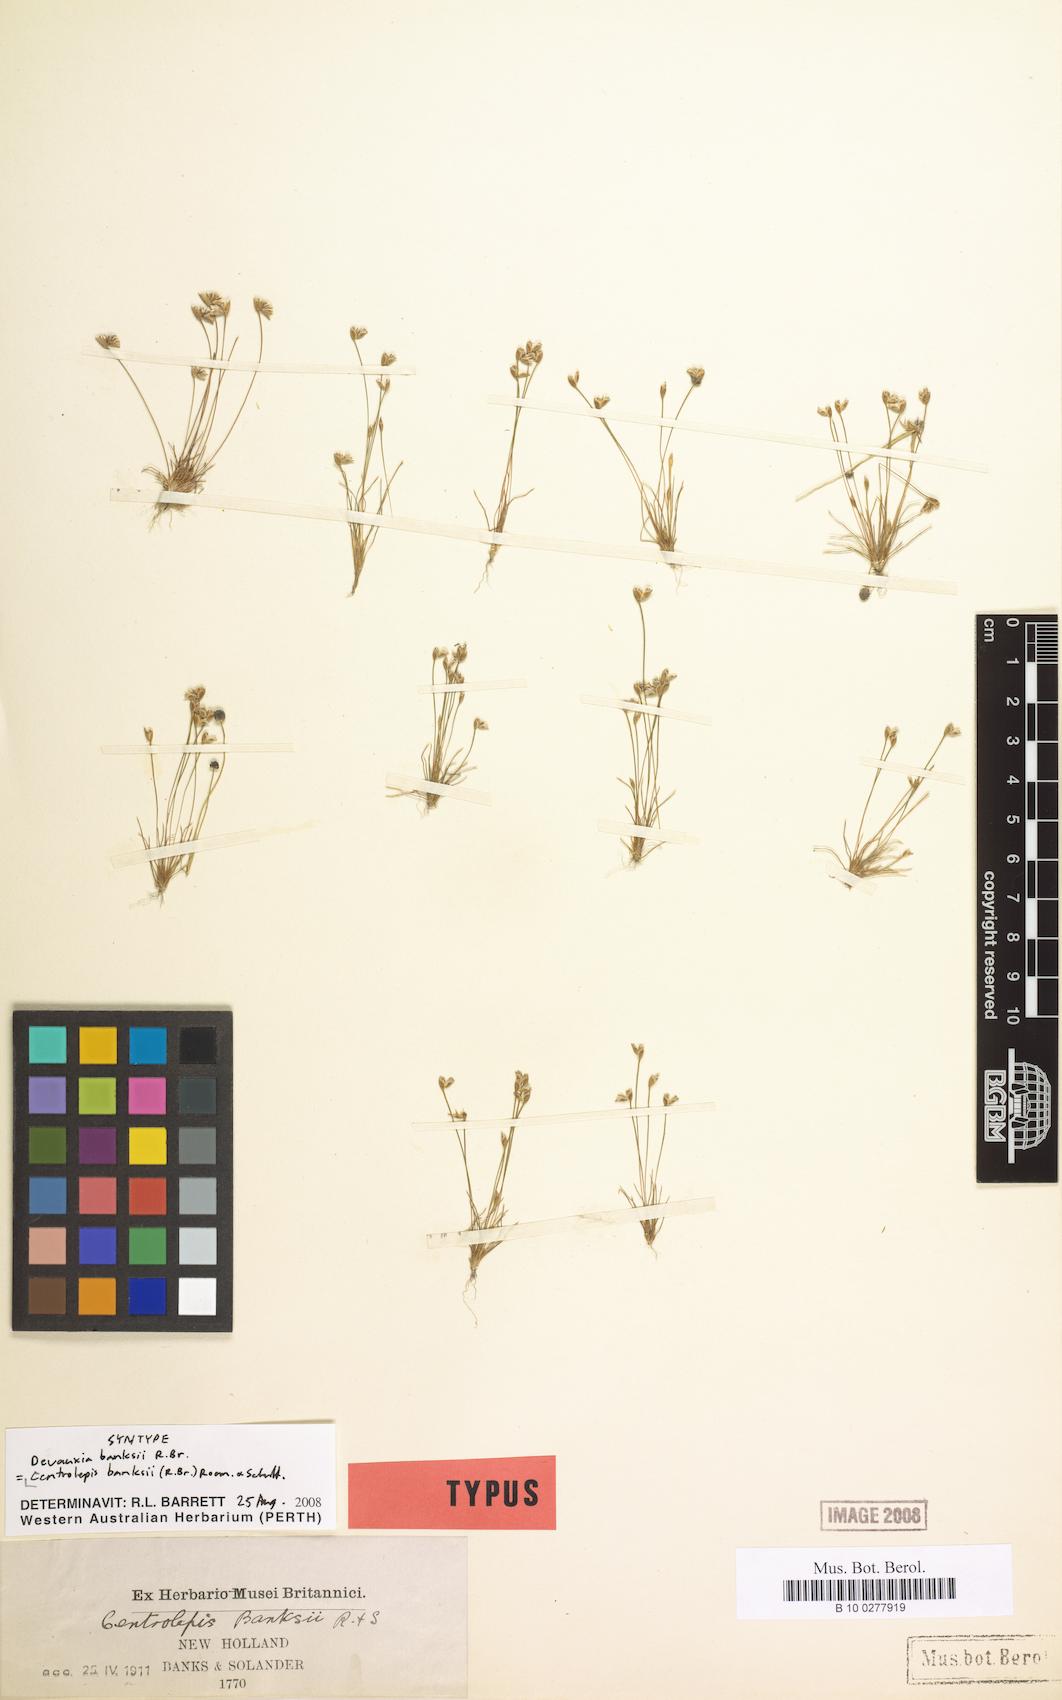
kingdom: Plantae
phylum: Tracheophyta
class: Liliopsida
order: Poales
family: Restionaceae
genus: Centrolepis
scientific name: Centrolepis banksii
